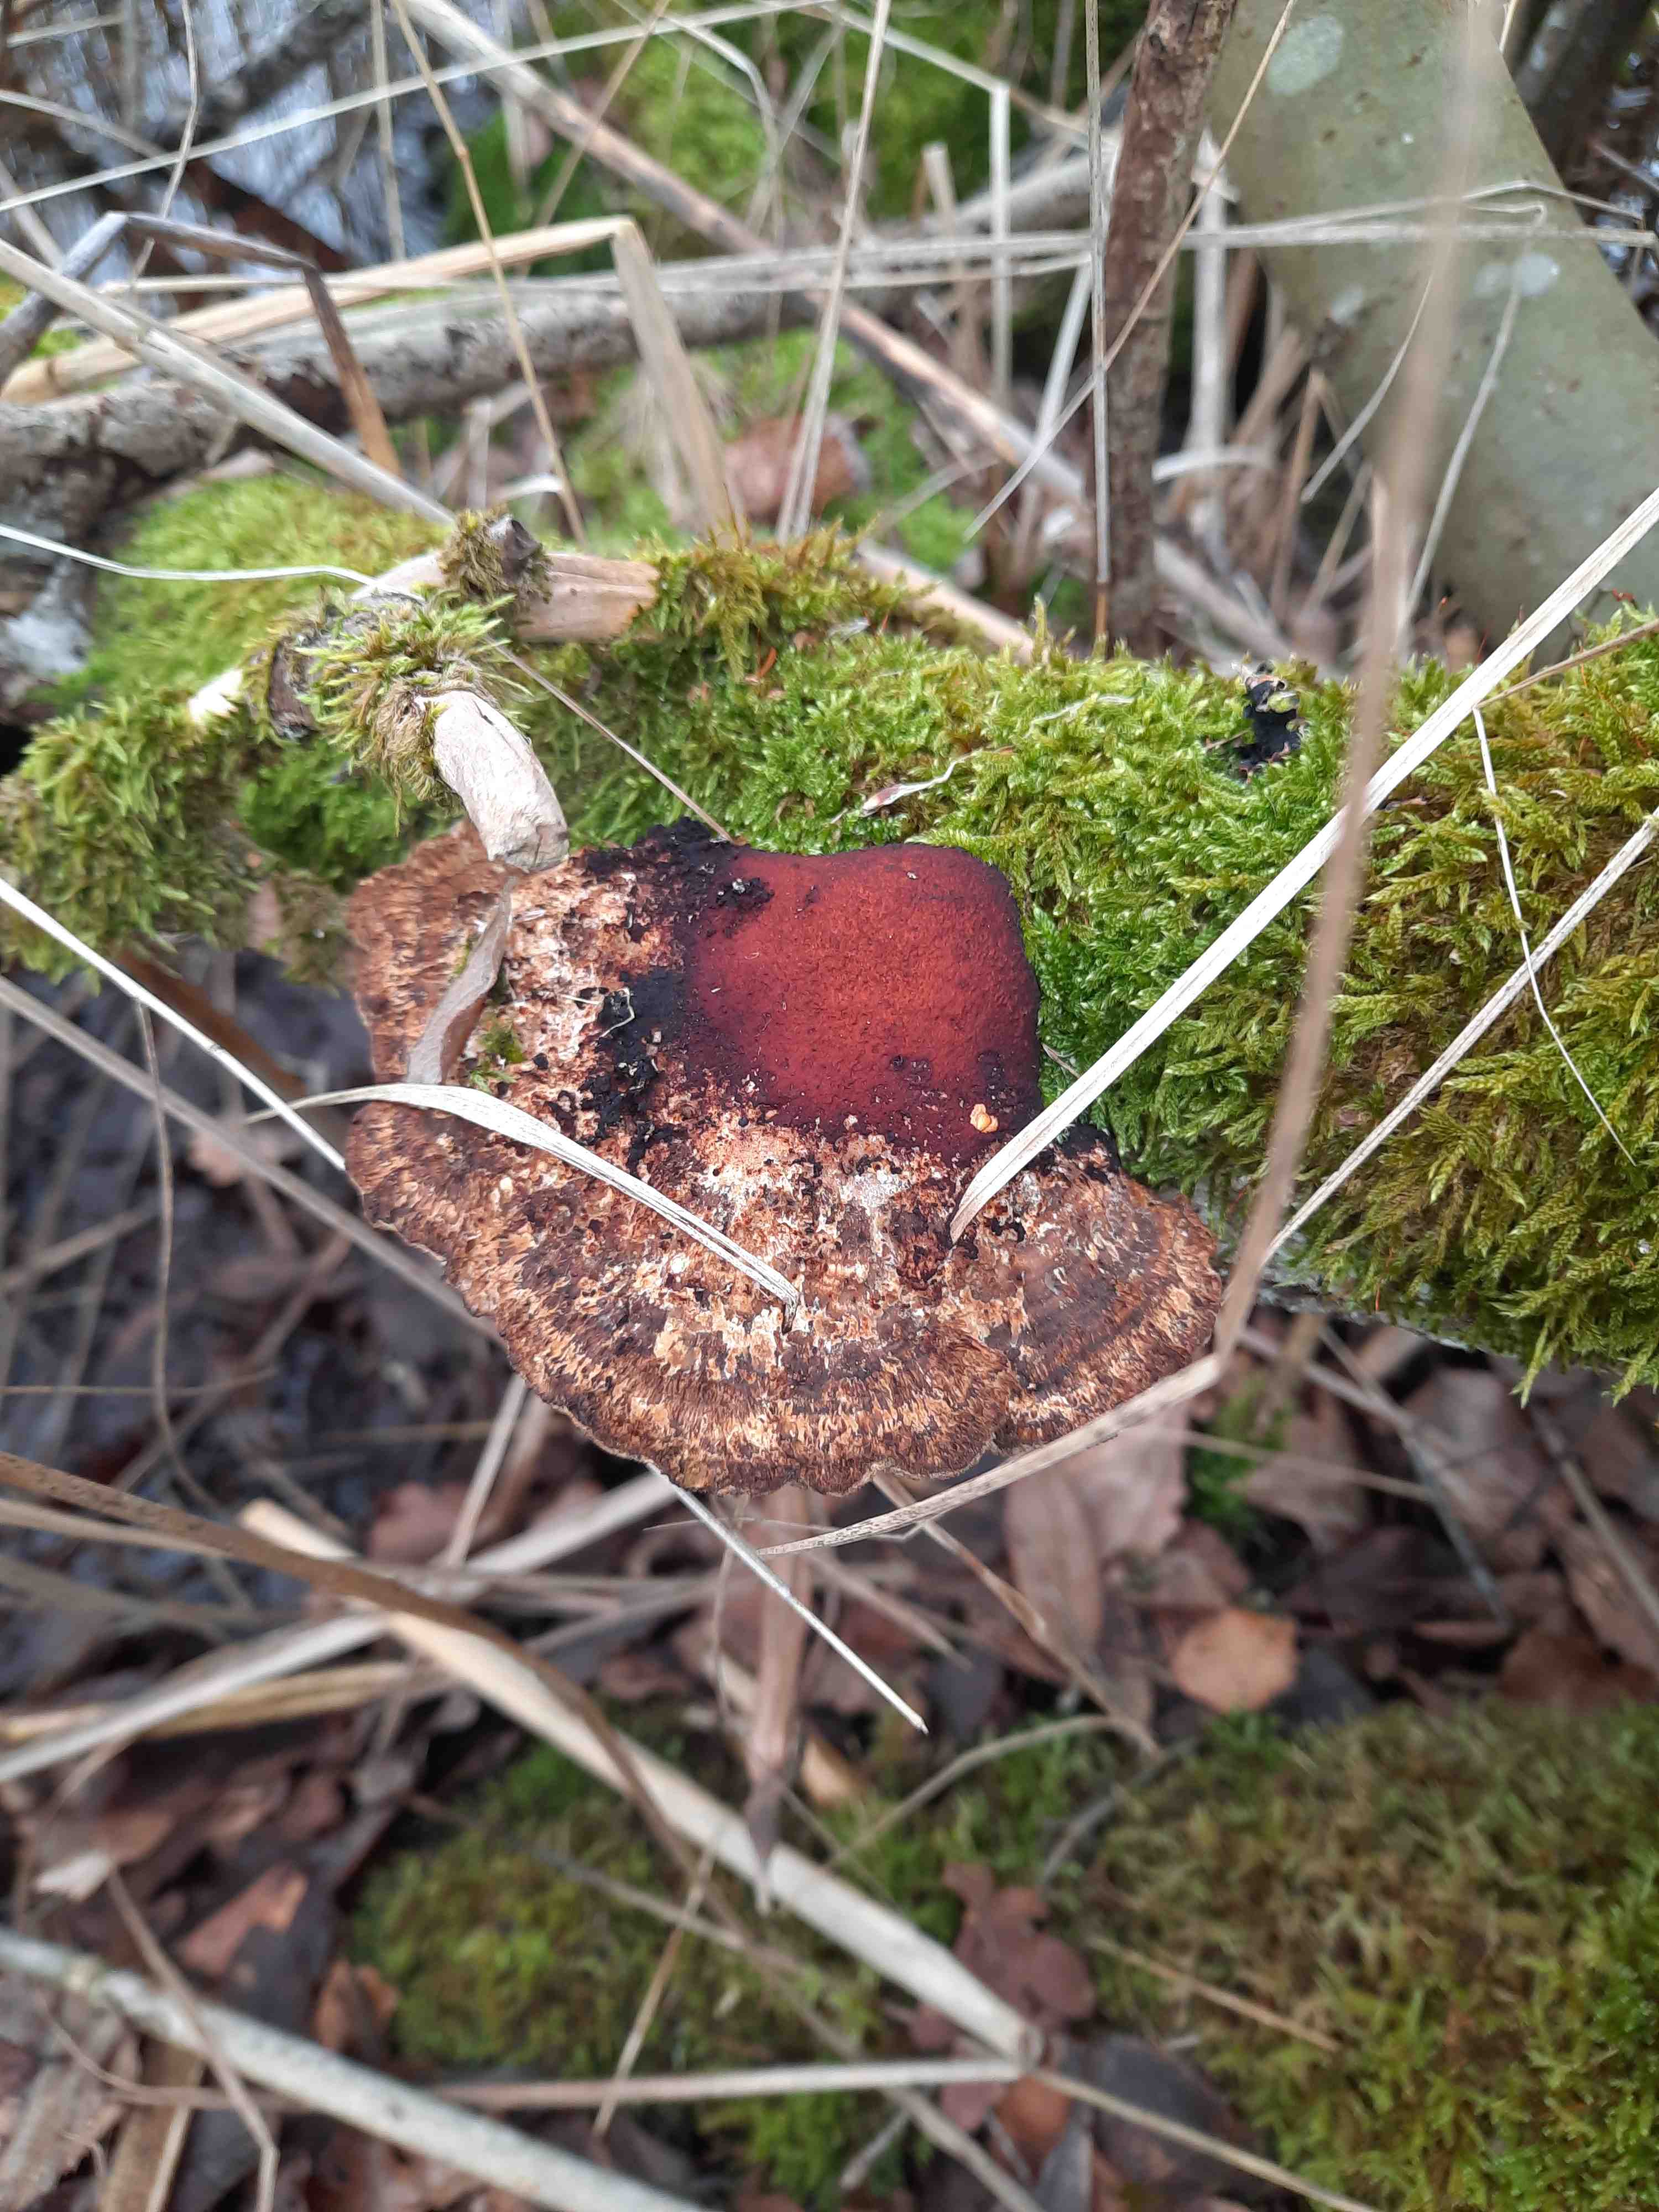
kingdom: Fungi
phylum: Basidiomycota
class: Agaricomycetes
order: Polyporales
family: Polyporaceae
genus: Daedaleopsis
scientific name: Daedaleopsis confragosa
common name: rødmende læderporesvamp
